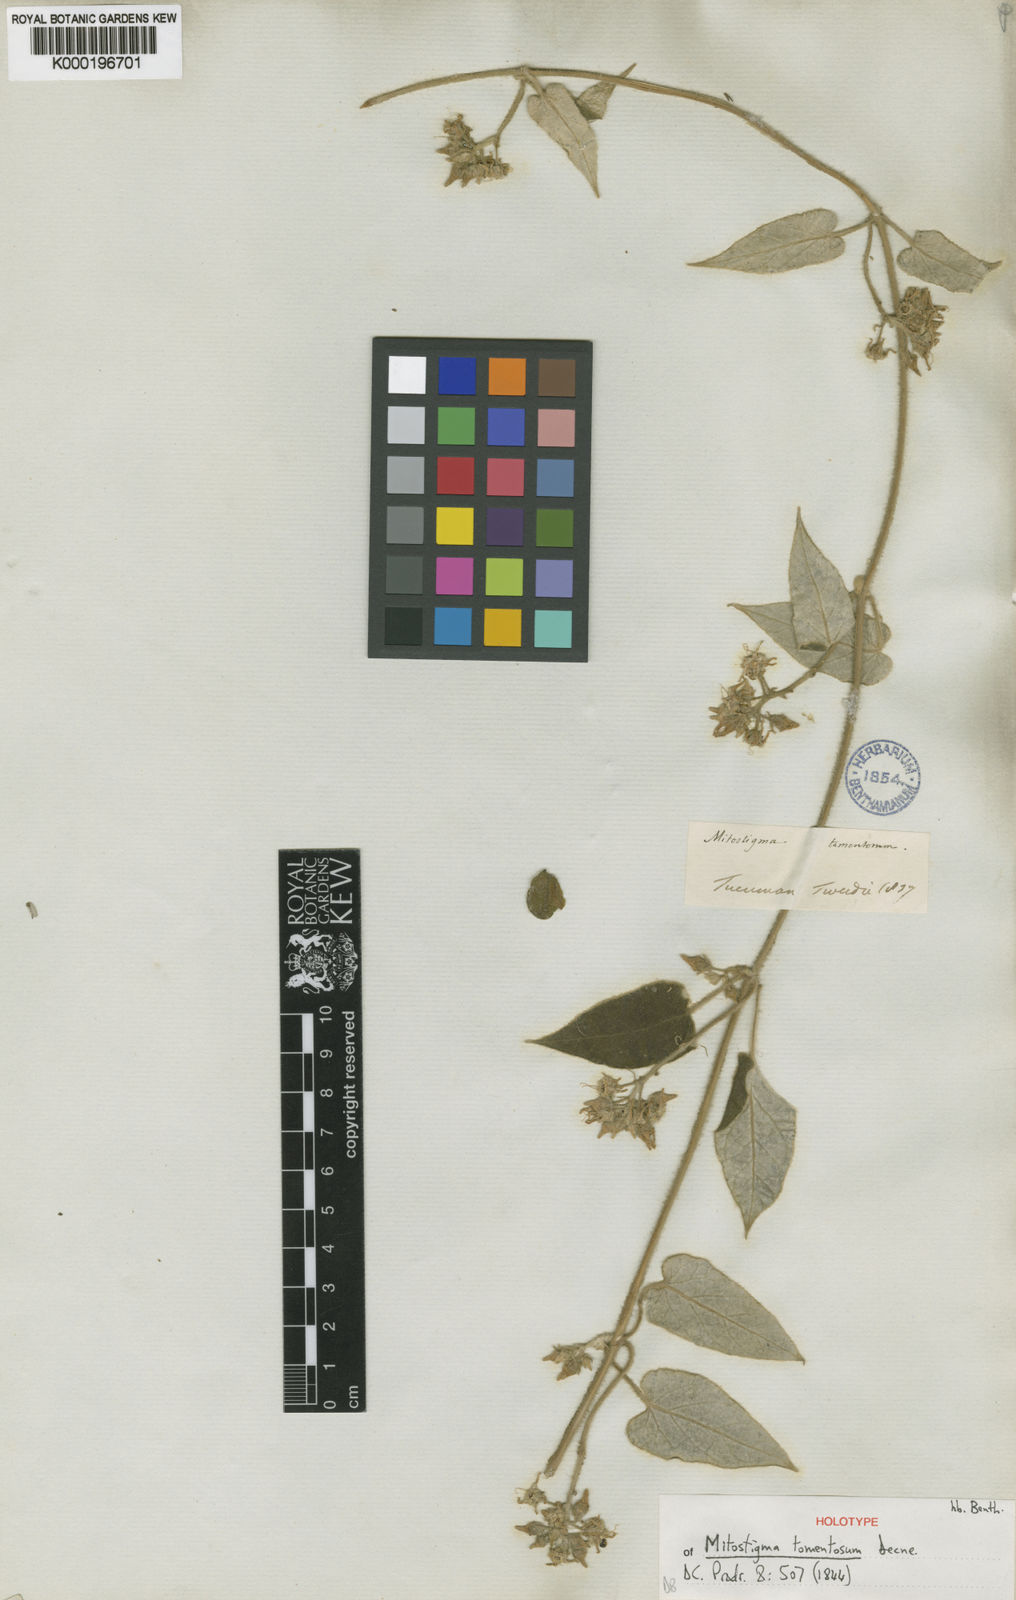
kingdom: Plantae
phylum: Tracheophyta
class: Magnoliopsida
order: Gentianales
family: Apocynaceae
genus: Philibertia
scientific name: Philibertia tomentosa
